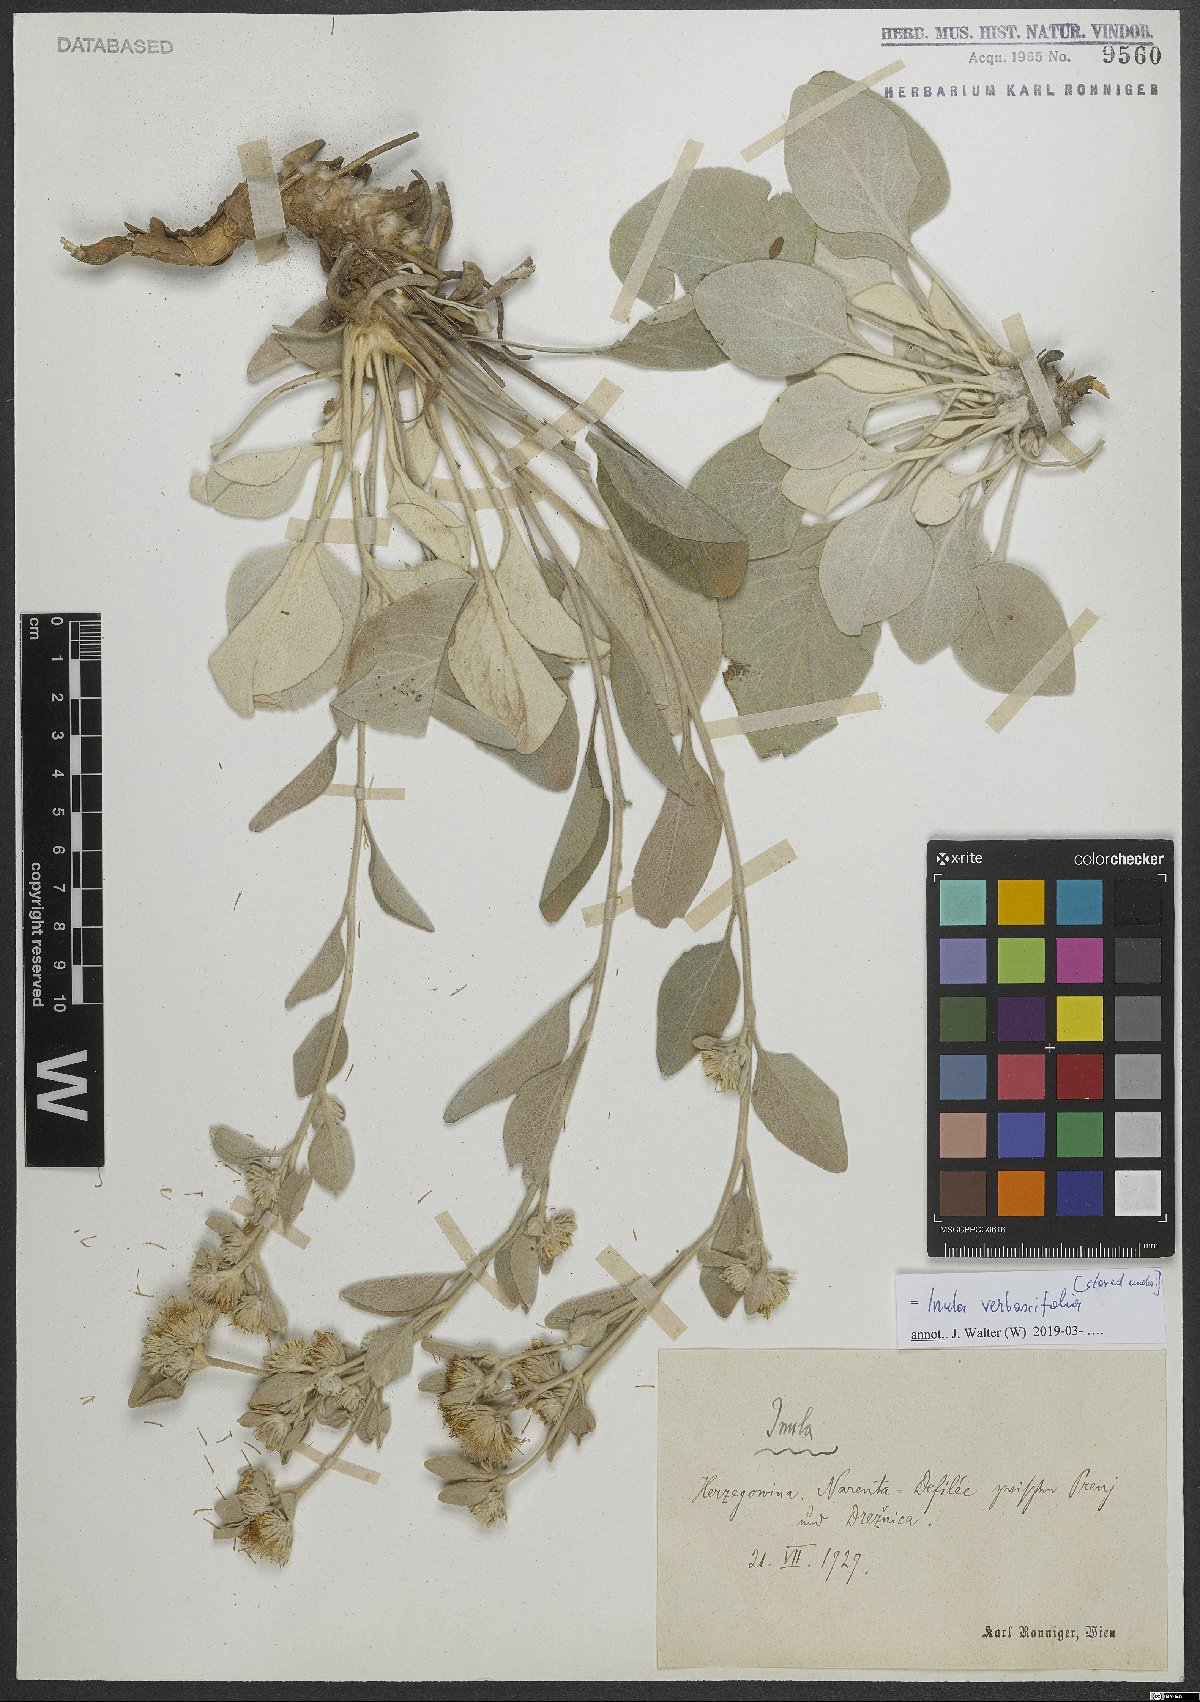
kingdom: Plantae
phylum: Tracheophyta
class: Magnoliopsida
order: Asterales
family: Asteraceae
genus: Pentanema
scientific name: Pentanema verbascifolium
